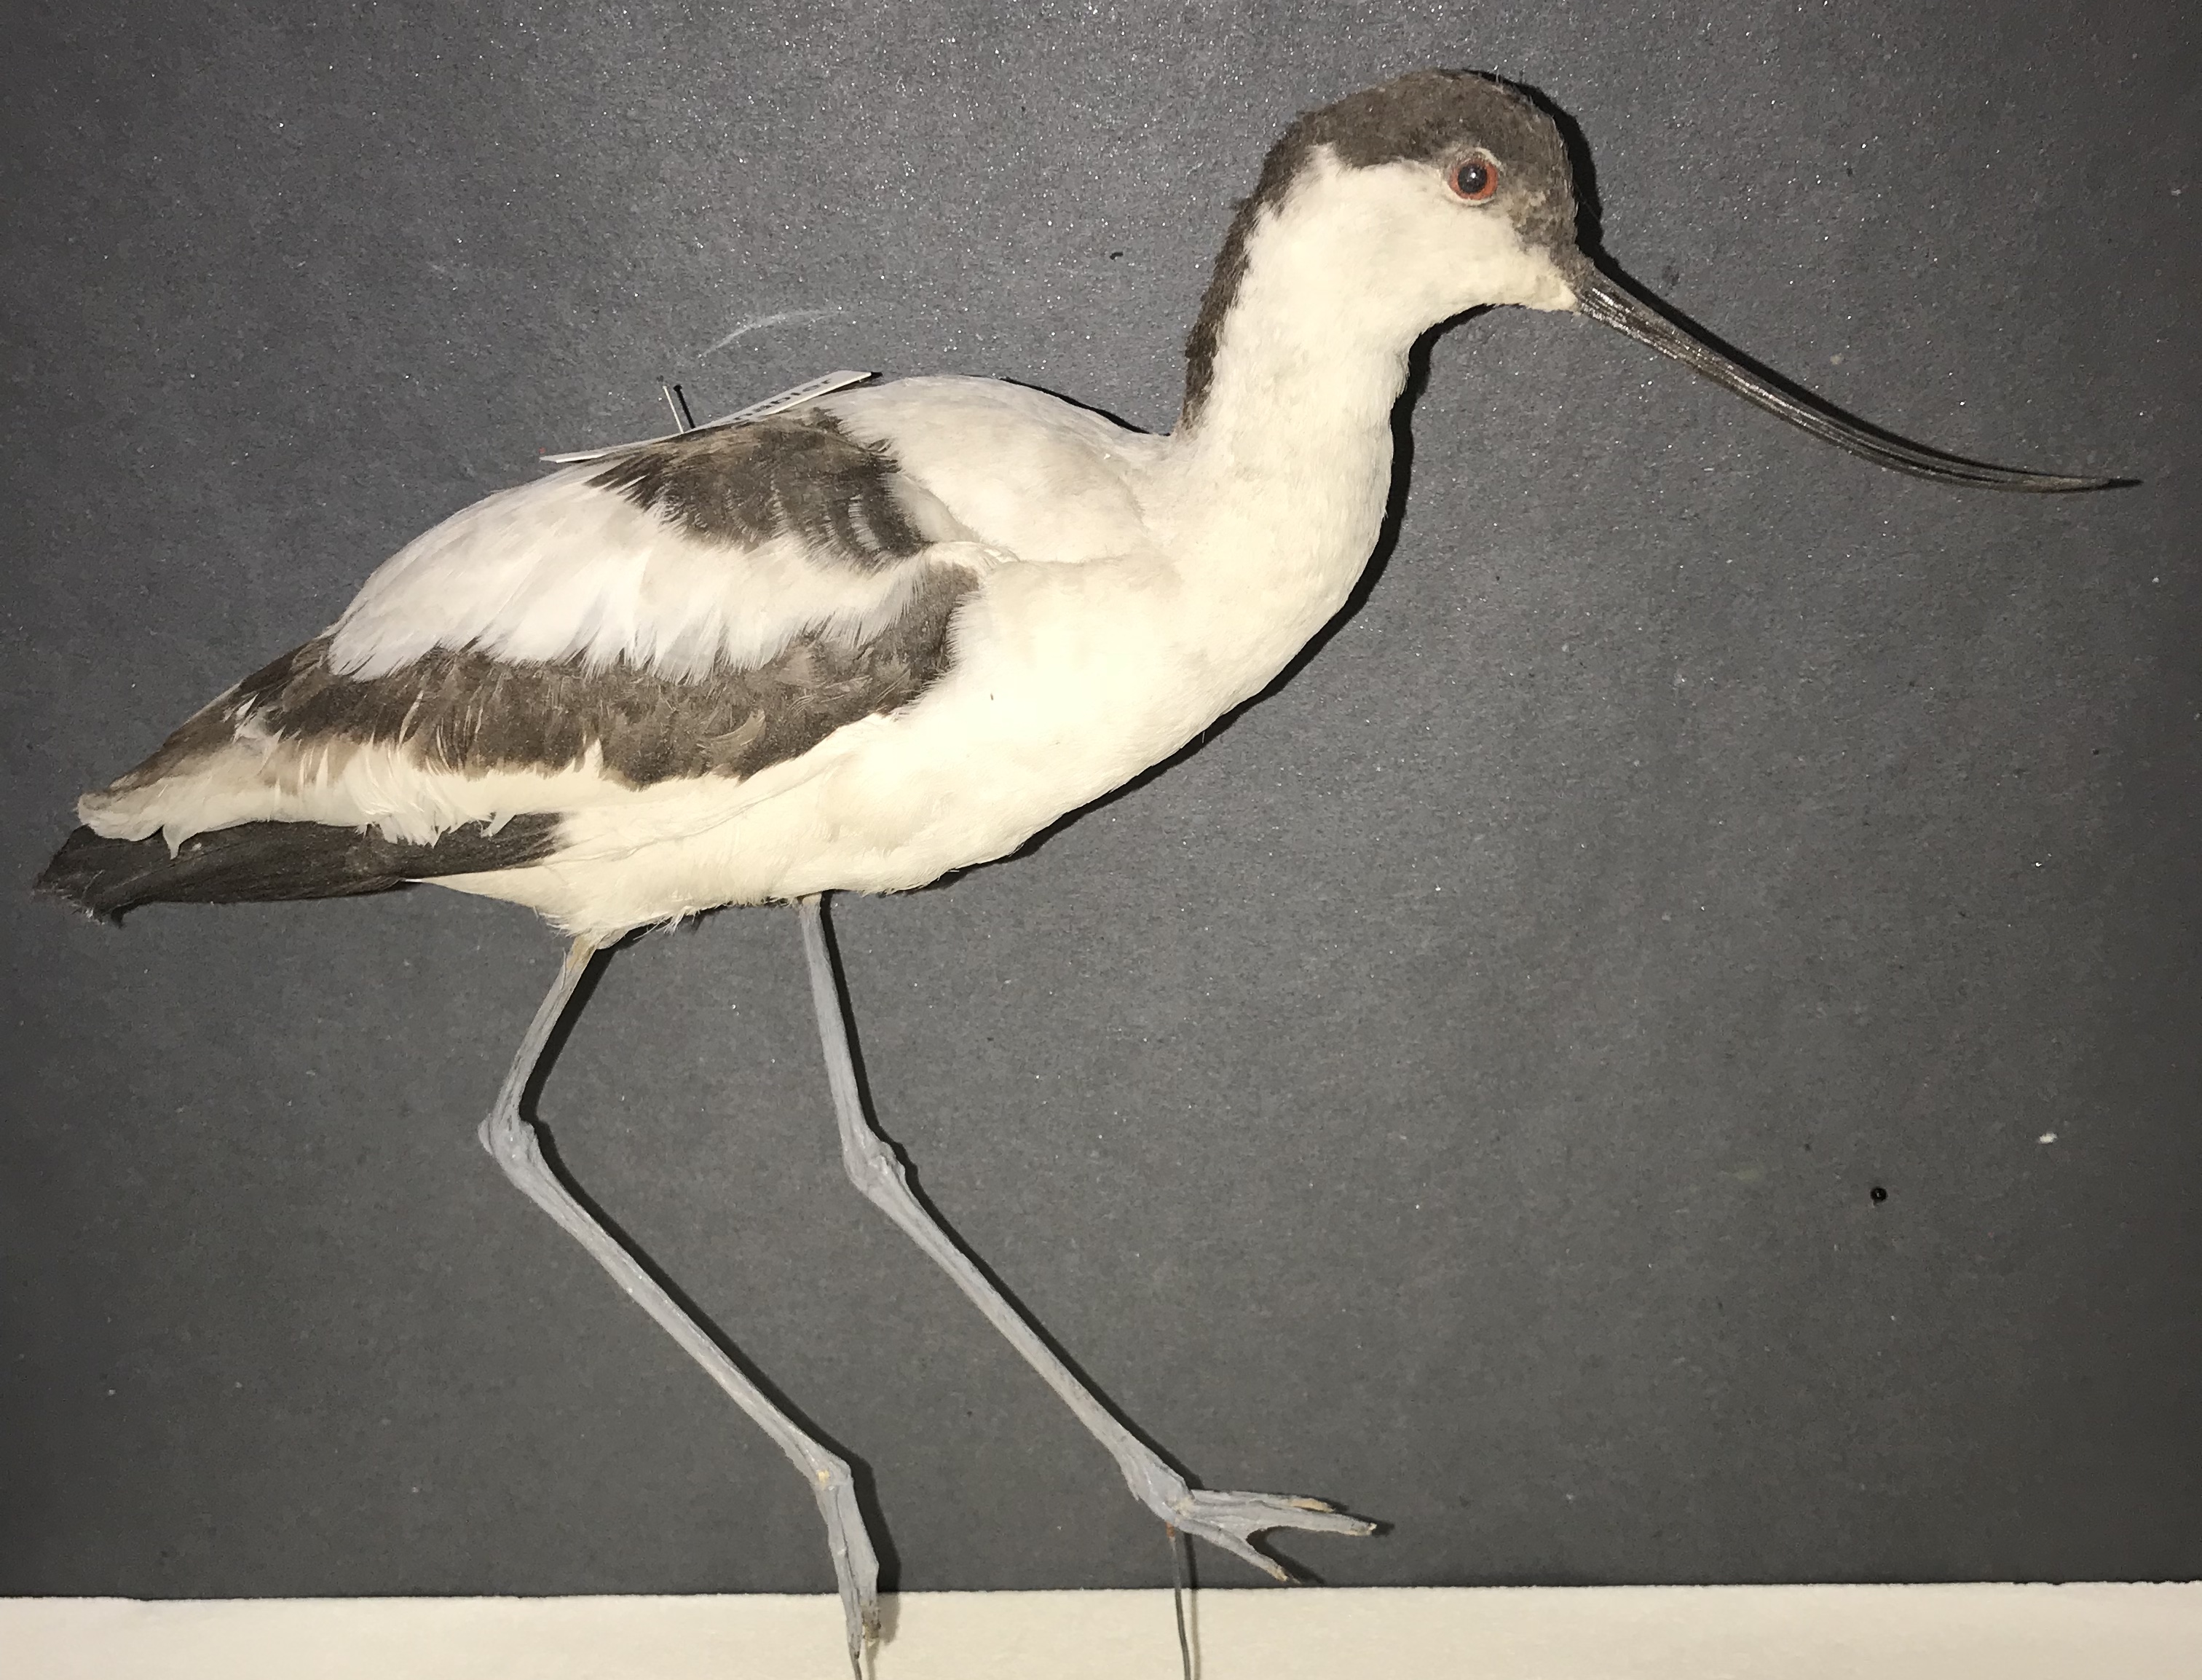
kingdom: Animalia
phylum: Chordata
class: Aves
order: Charadriiformes
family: Recurvirostridae
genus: Recurvirostra
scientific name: Recurvirostra avosetta
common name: Pied avocet
